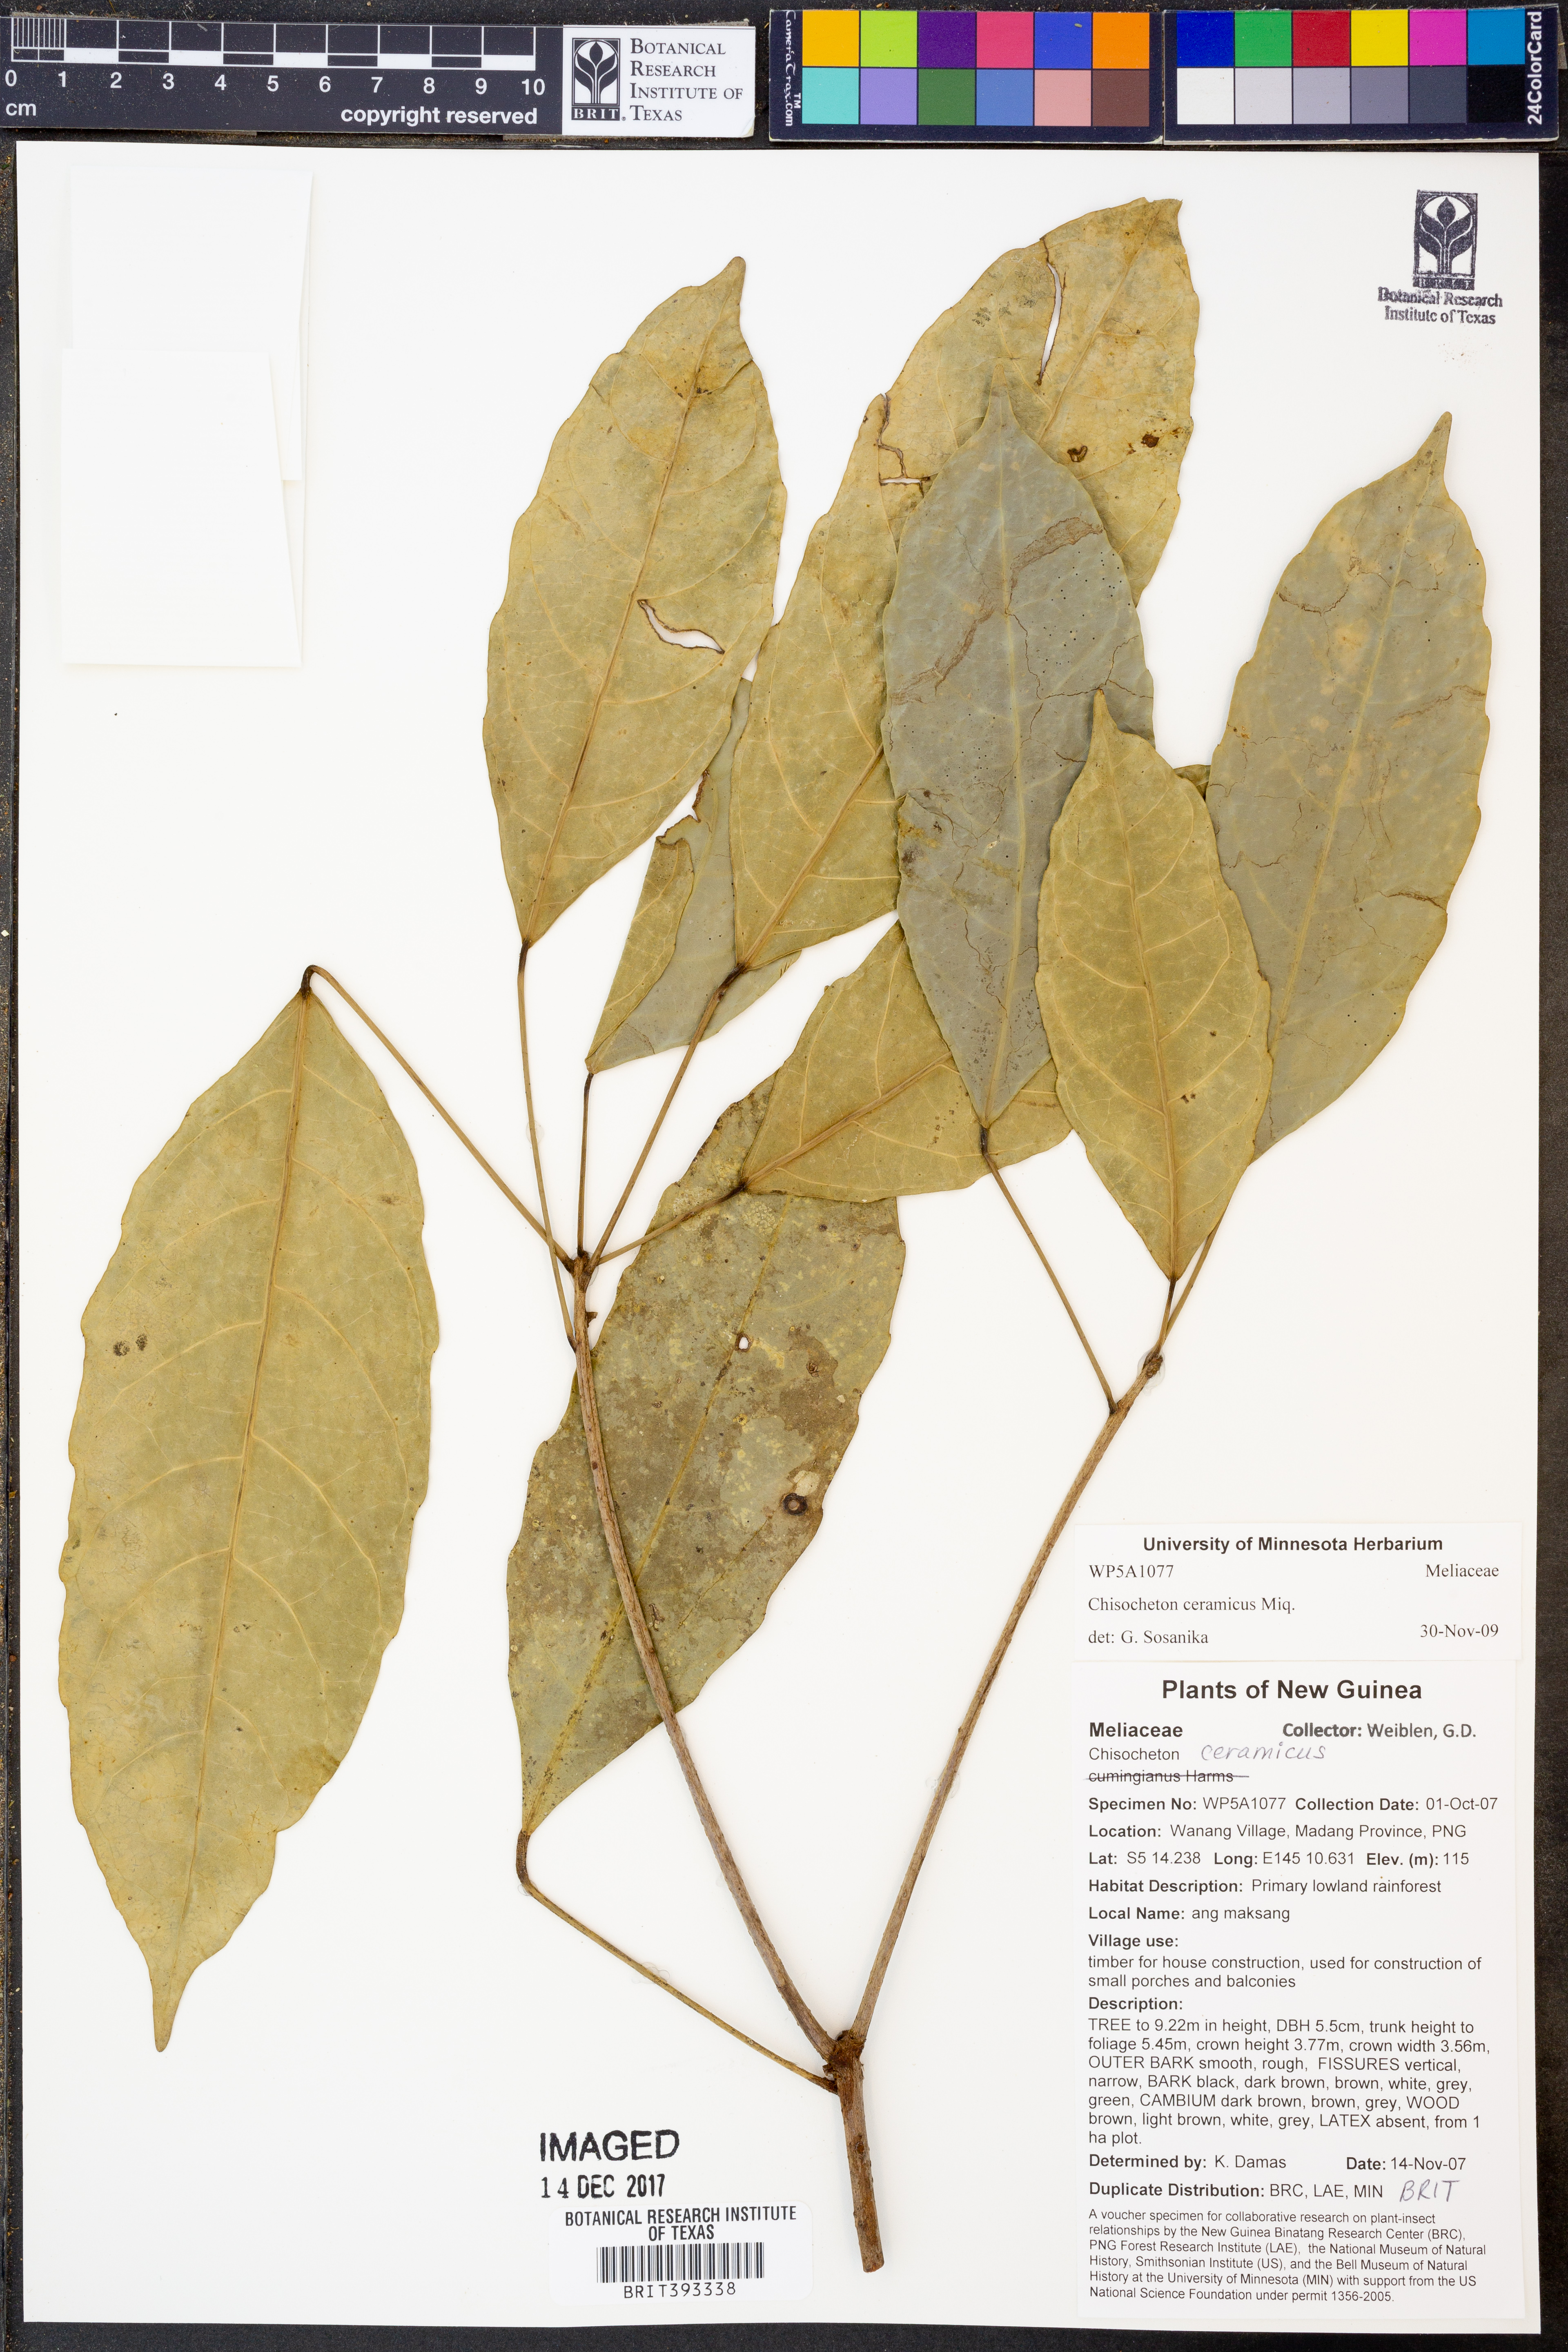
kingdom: Plantae
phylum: Tracheophyta
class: Magnoliopsida
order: Sapindales
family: Meliaceae
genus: Chisocheton
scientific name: Chisocheton ceramicus
